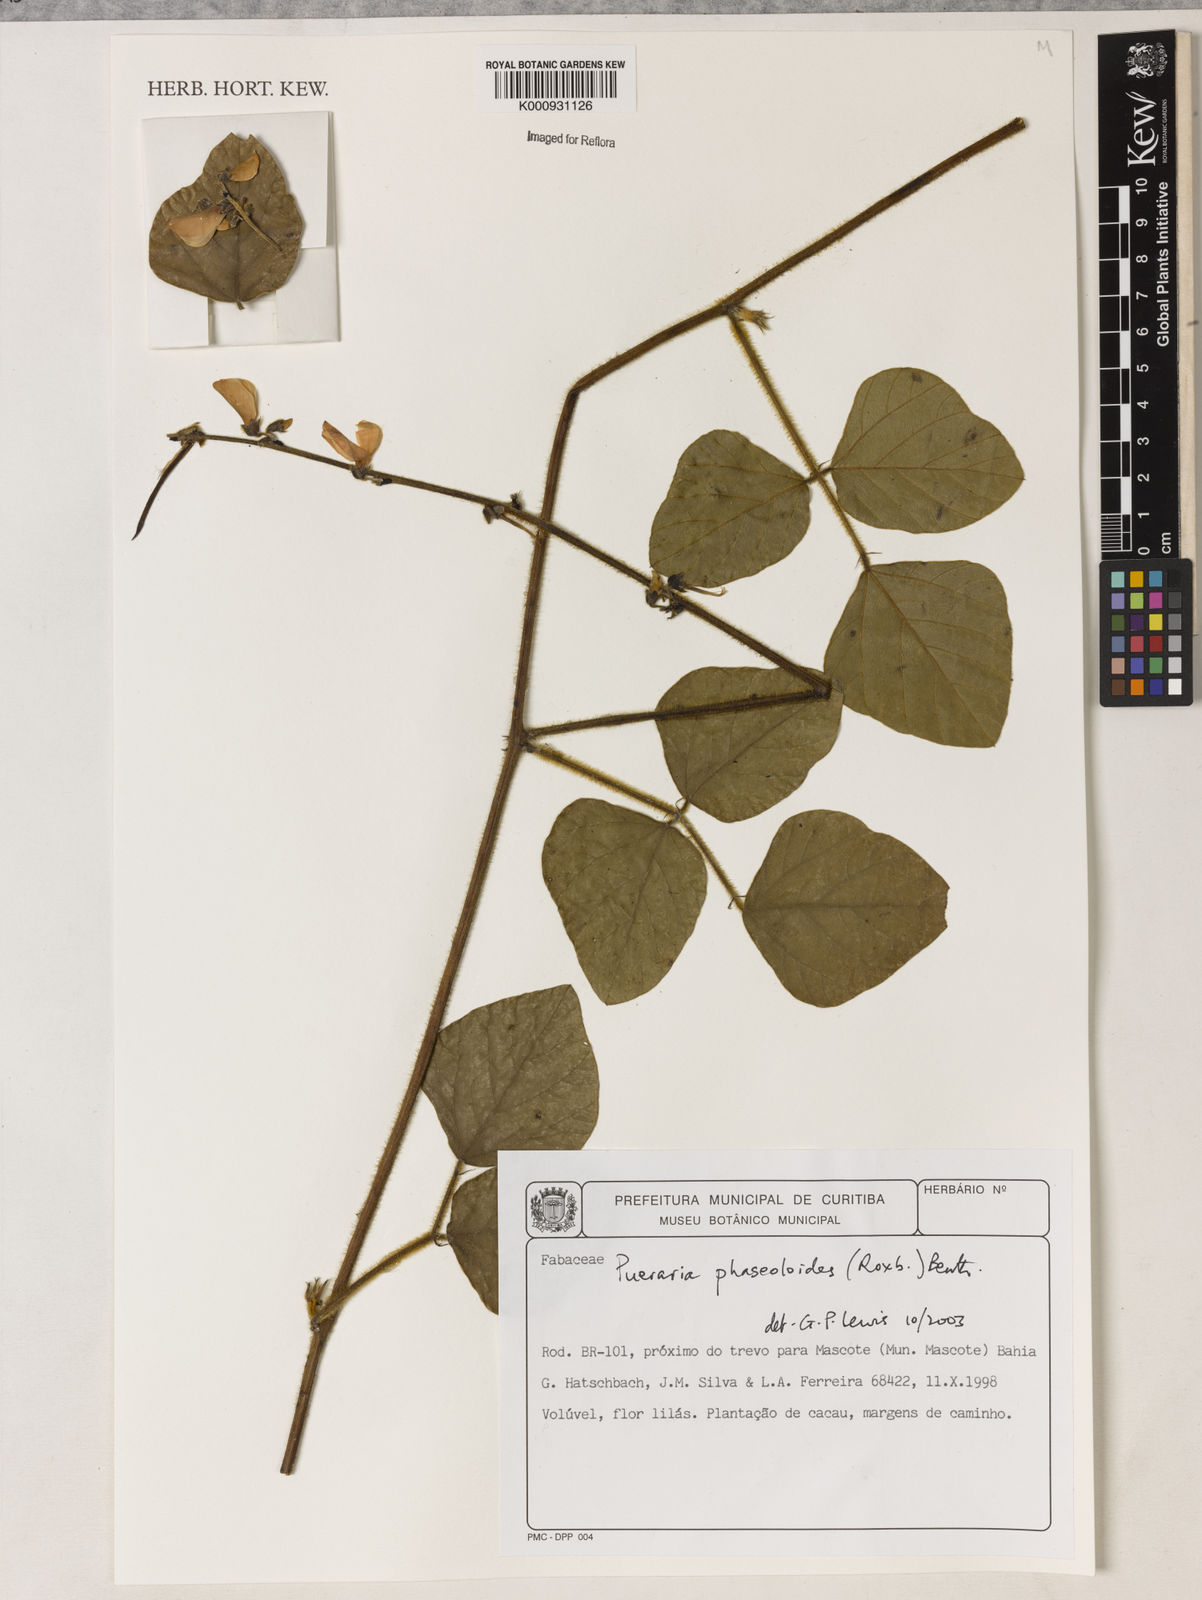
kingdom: Plantae
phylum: Tracheophyta
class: Magnoliopsida
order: Fabales
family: Fabaceae
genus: Neustanthus
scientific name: Neustanthus phaseoloides
